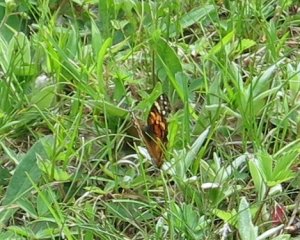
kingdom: Animalia
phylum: Arthropoda
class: Insecta
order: Lepidoptera
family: Nymphalidae
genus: Vanessa
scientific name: Vanessa cardui
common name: Painted Lady
